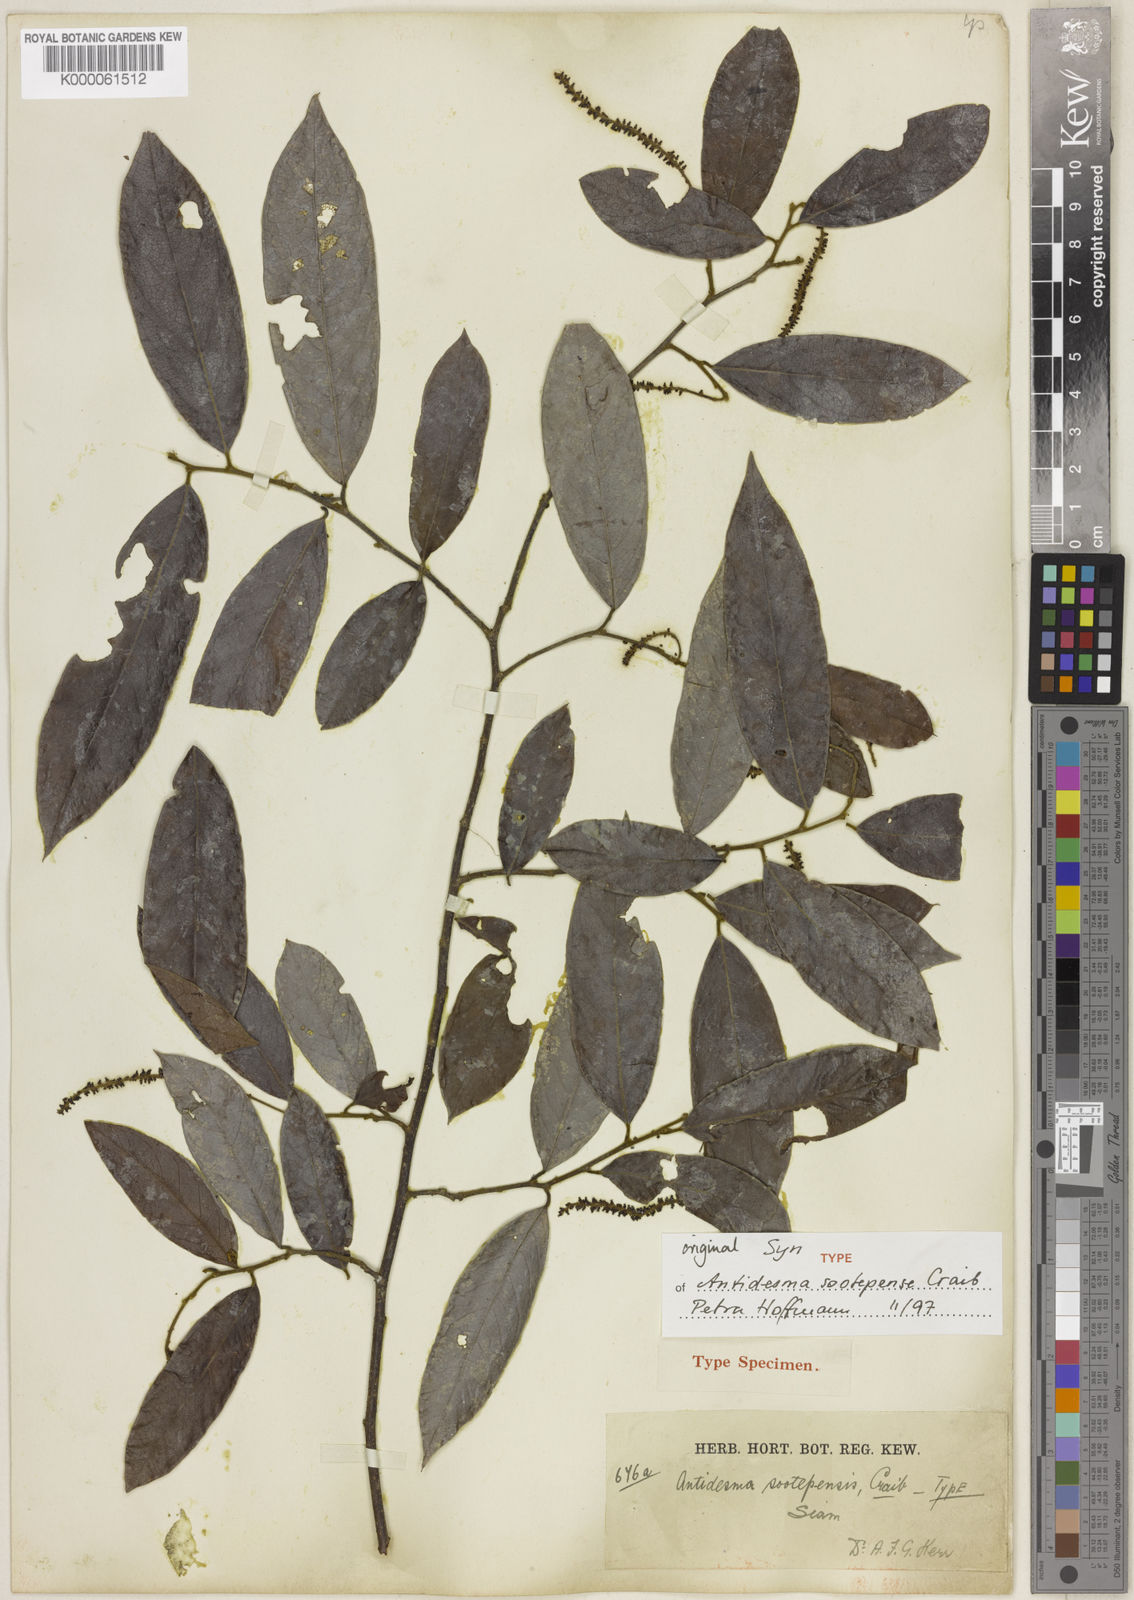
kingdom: Plantae
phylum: Tracheophyta
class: Magnoliopsida
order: Malpighiales
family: Phyllanthaceae
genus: Antidesma
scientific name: Antidesma sootepense
